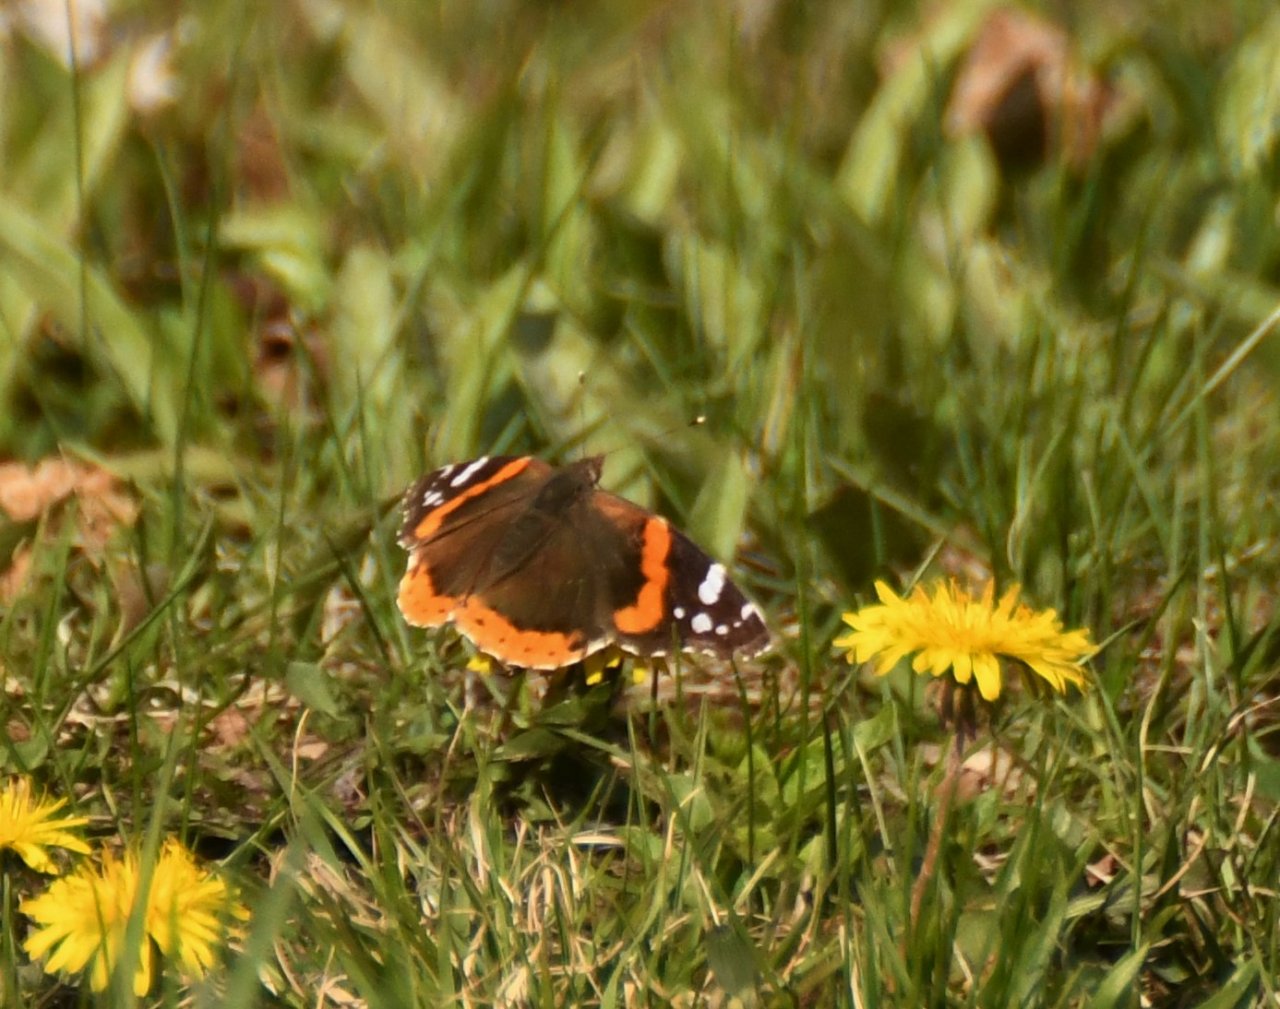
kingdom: Animalia
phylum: Arthropoda
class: Insecta
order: Lepidoptera
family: Nymphalidae
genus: Vanessa
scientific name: Vanessa atalanta
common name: Red Admiral
